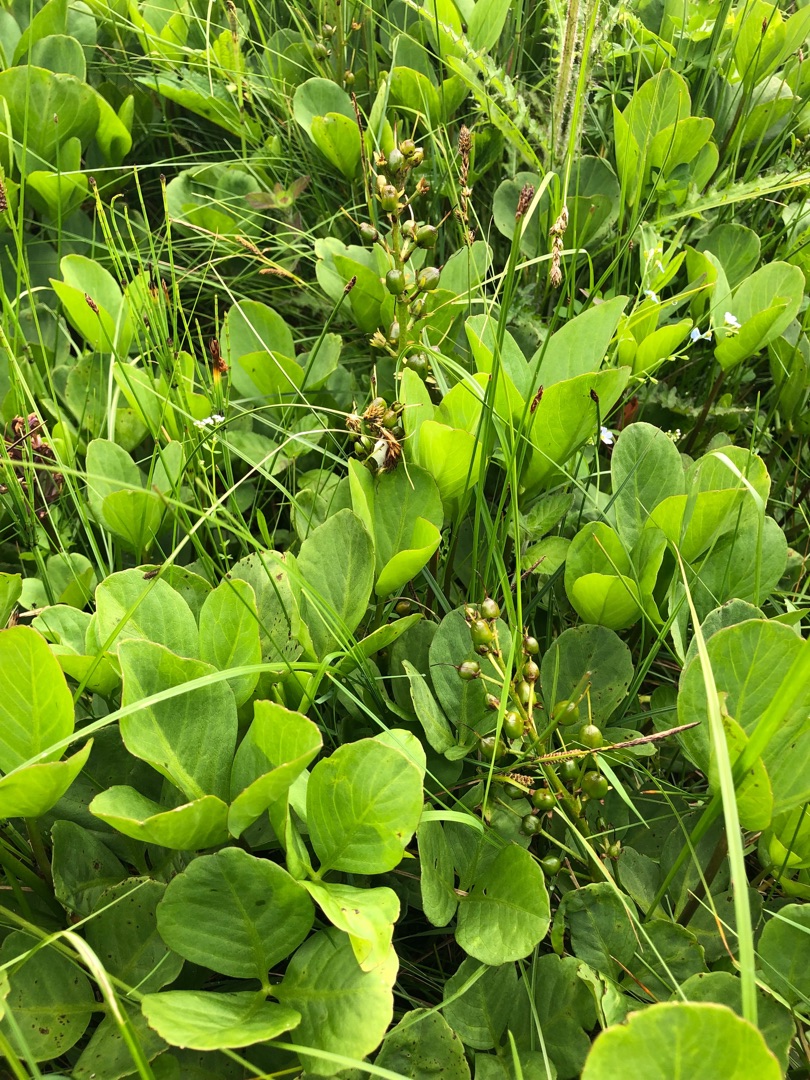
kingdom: Plantae
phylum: Tracheophyta
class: Magnoliopsida
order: Asterales
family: Menyanthaceae
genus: Menyanthes
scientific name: Menyanthes trifoliata
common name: Bukkeblad
